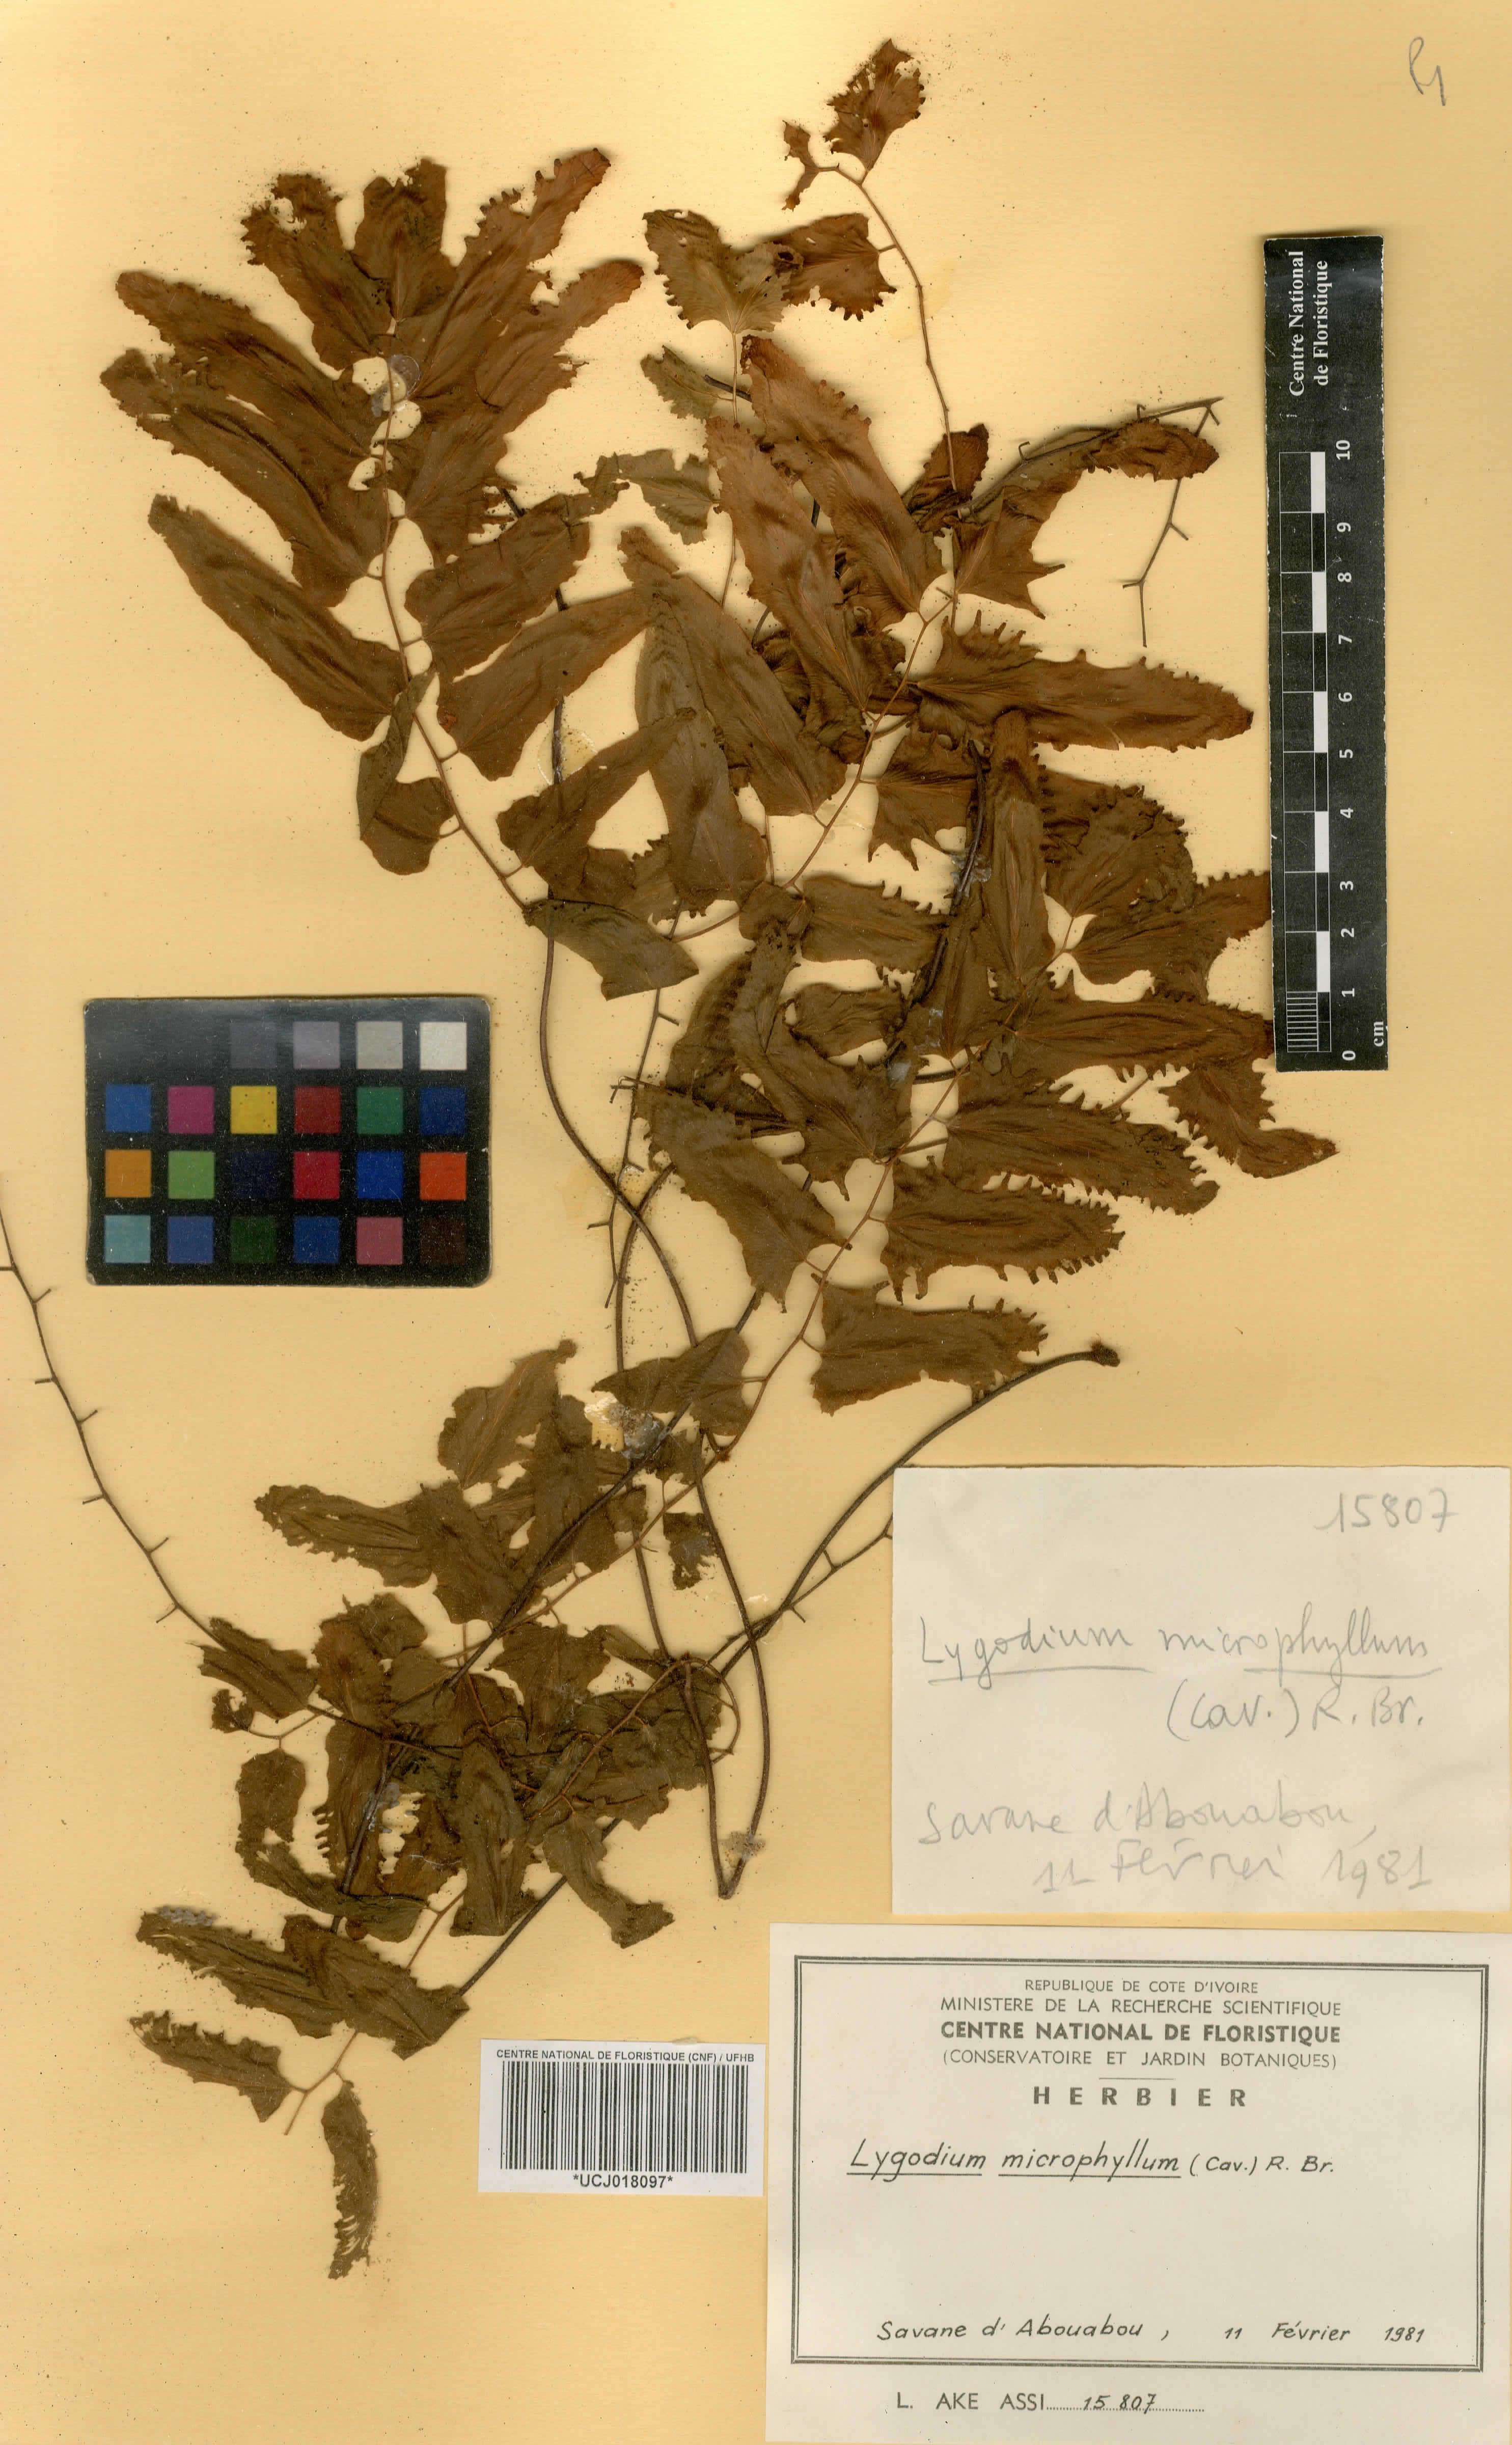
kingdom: Plantae
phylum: Tracheophyta
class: Polypodiopsida
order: Schizaeales
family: Lygodiaceae
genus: Lygodium
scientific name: Lygodium microphyllum
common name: Small-leaf climbing fern
